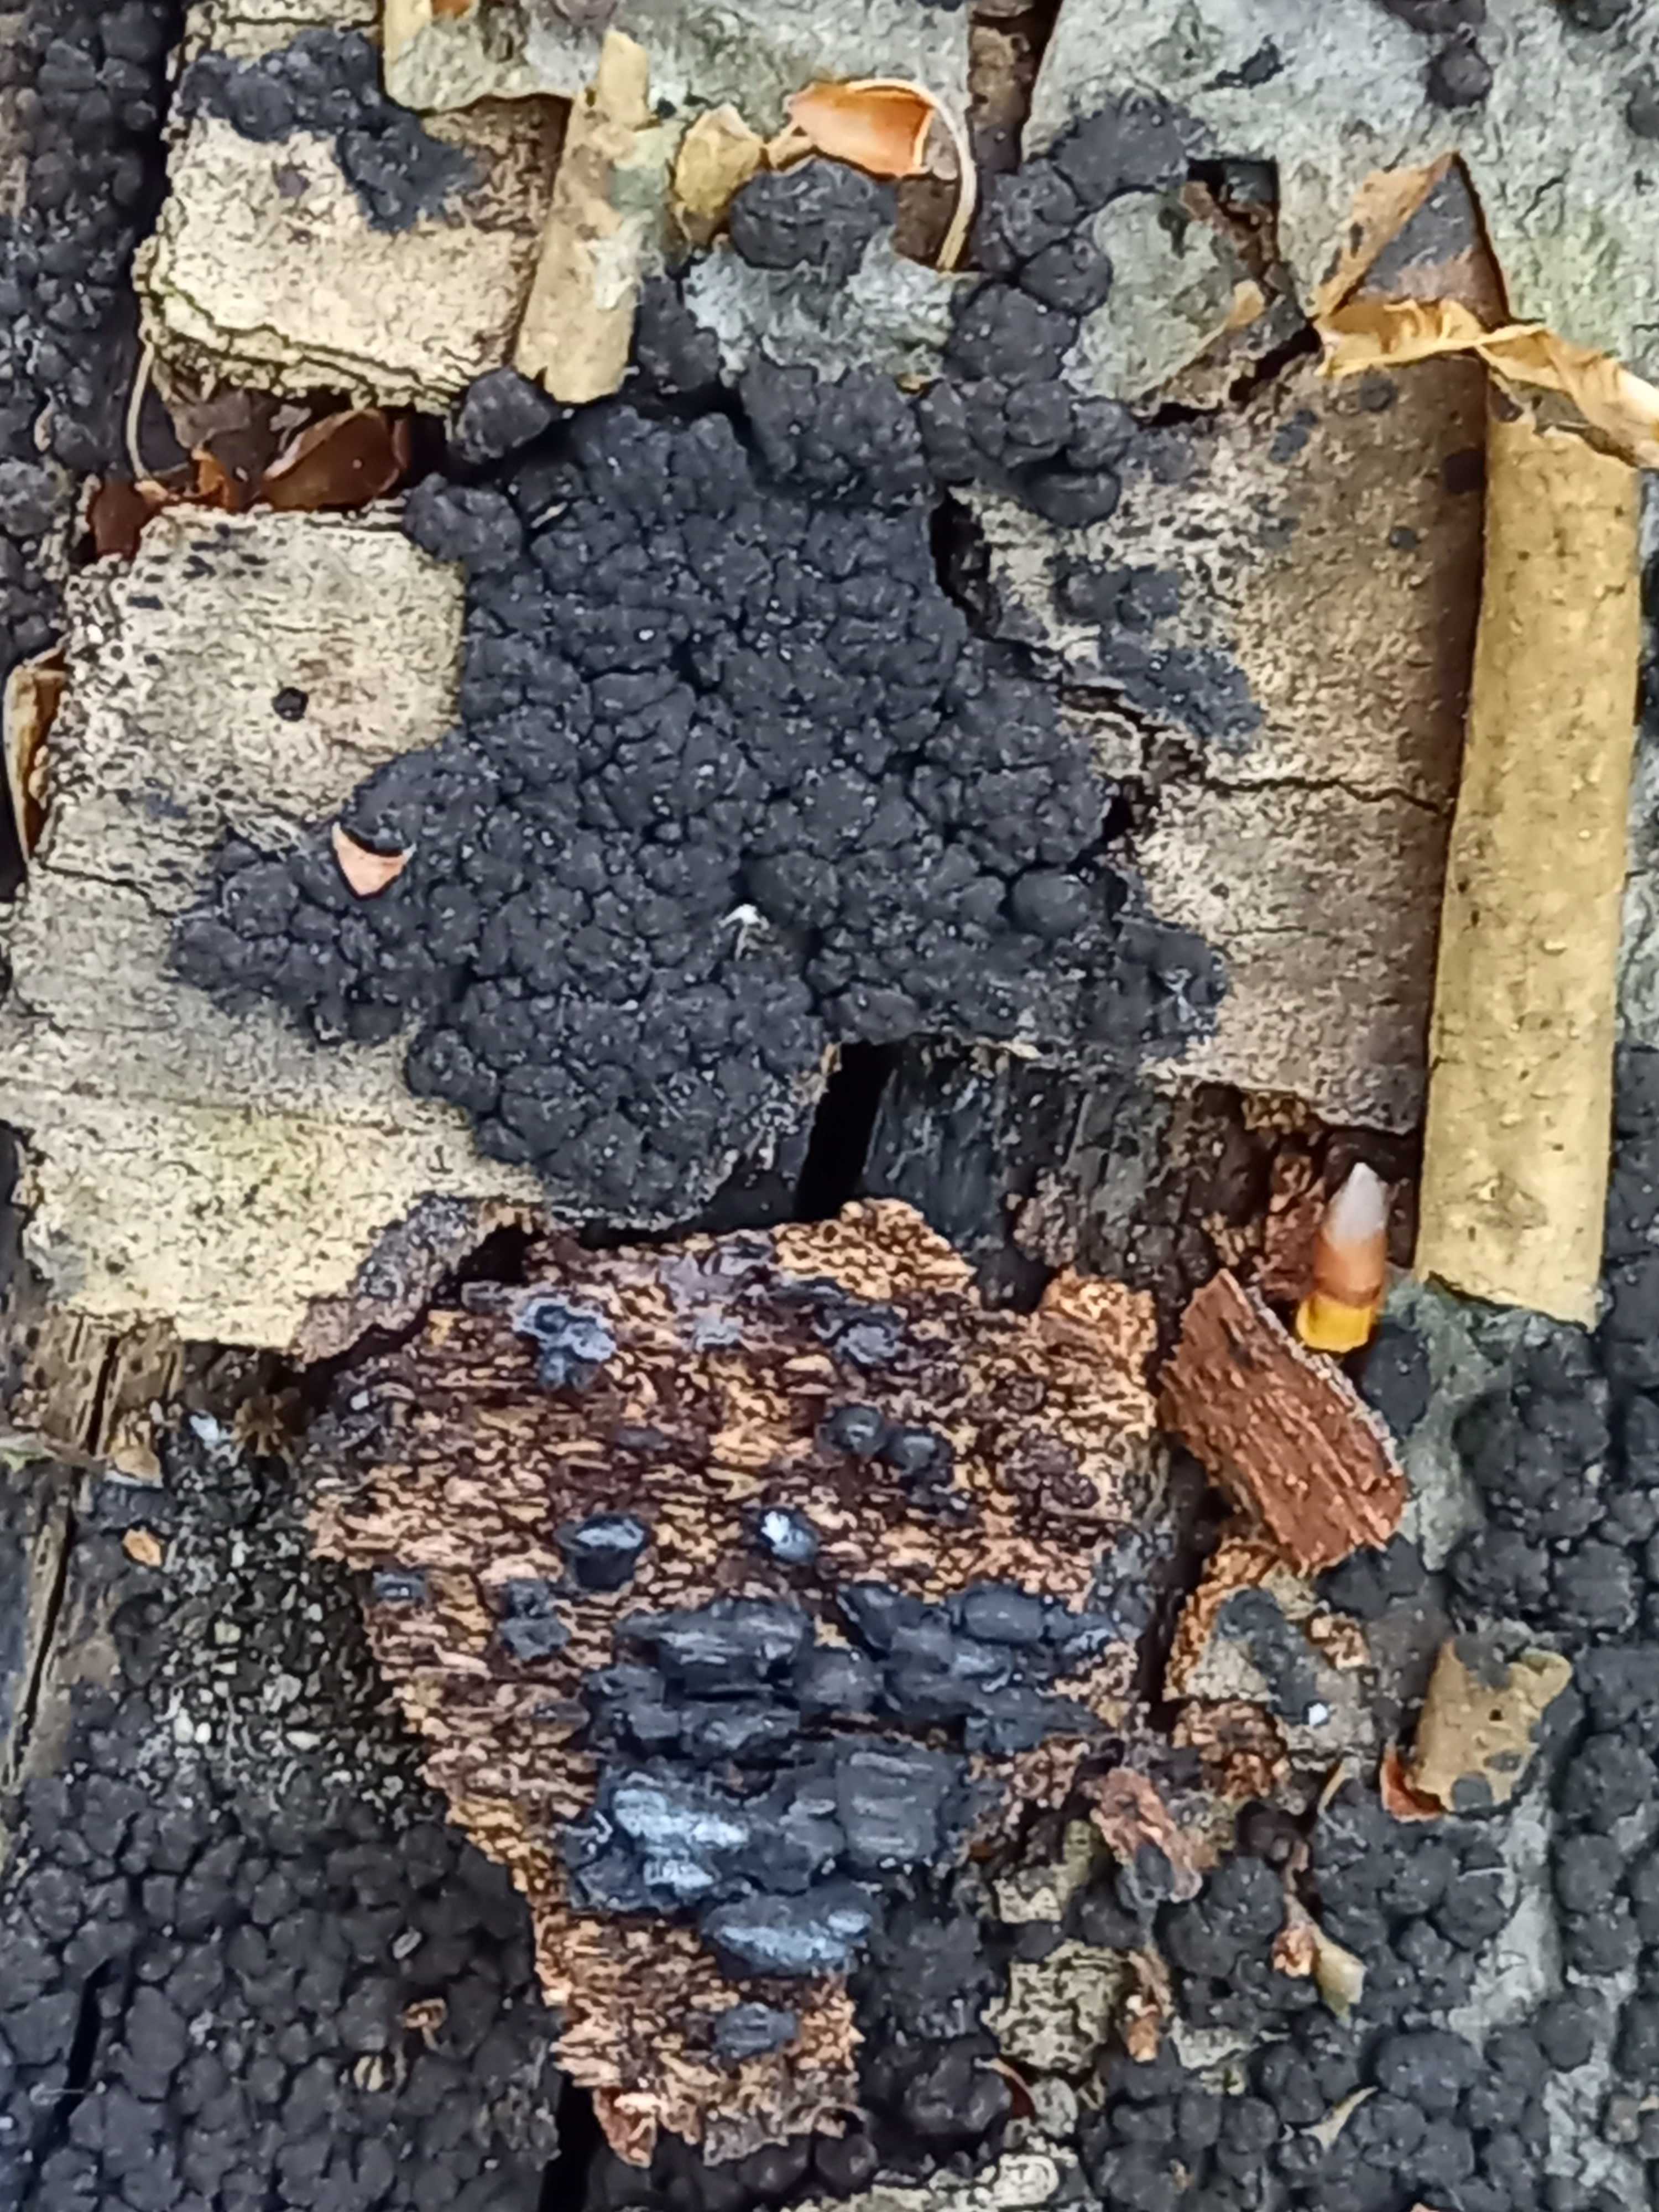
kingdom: Fungi
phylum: Ascomycota
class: Sordariomycetes
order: Xylariales
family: Hypoxylaceae
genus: Jackrogersella
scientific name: Jackrogersella cohaerens
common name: sammenflydende kulbær
